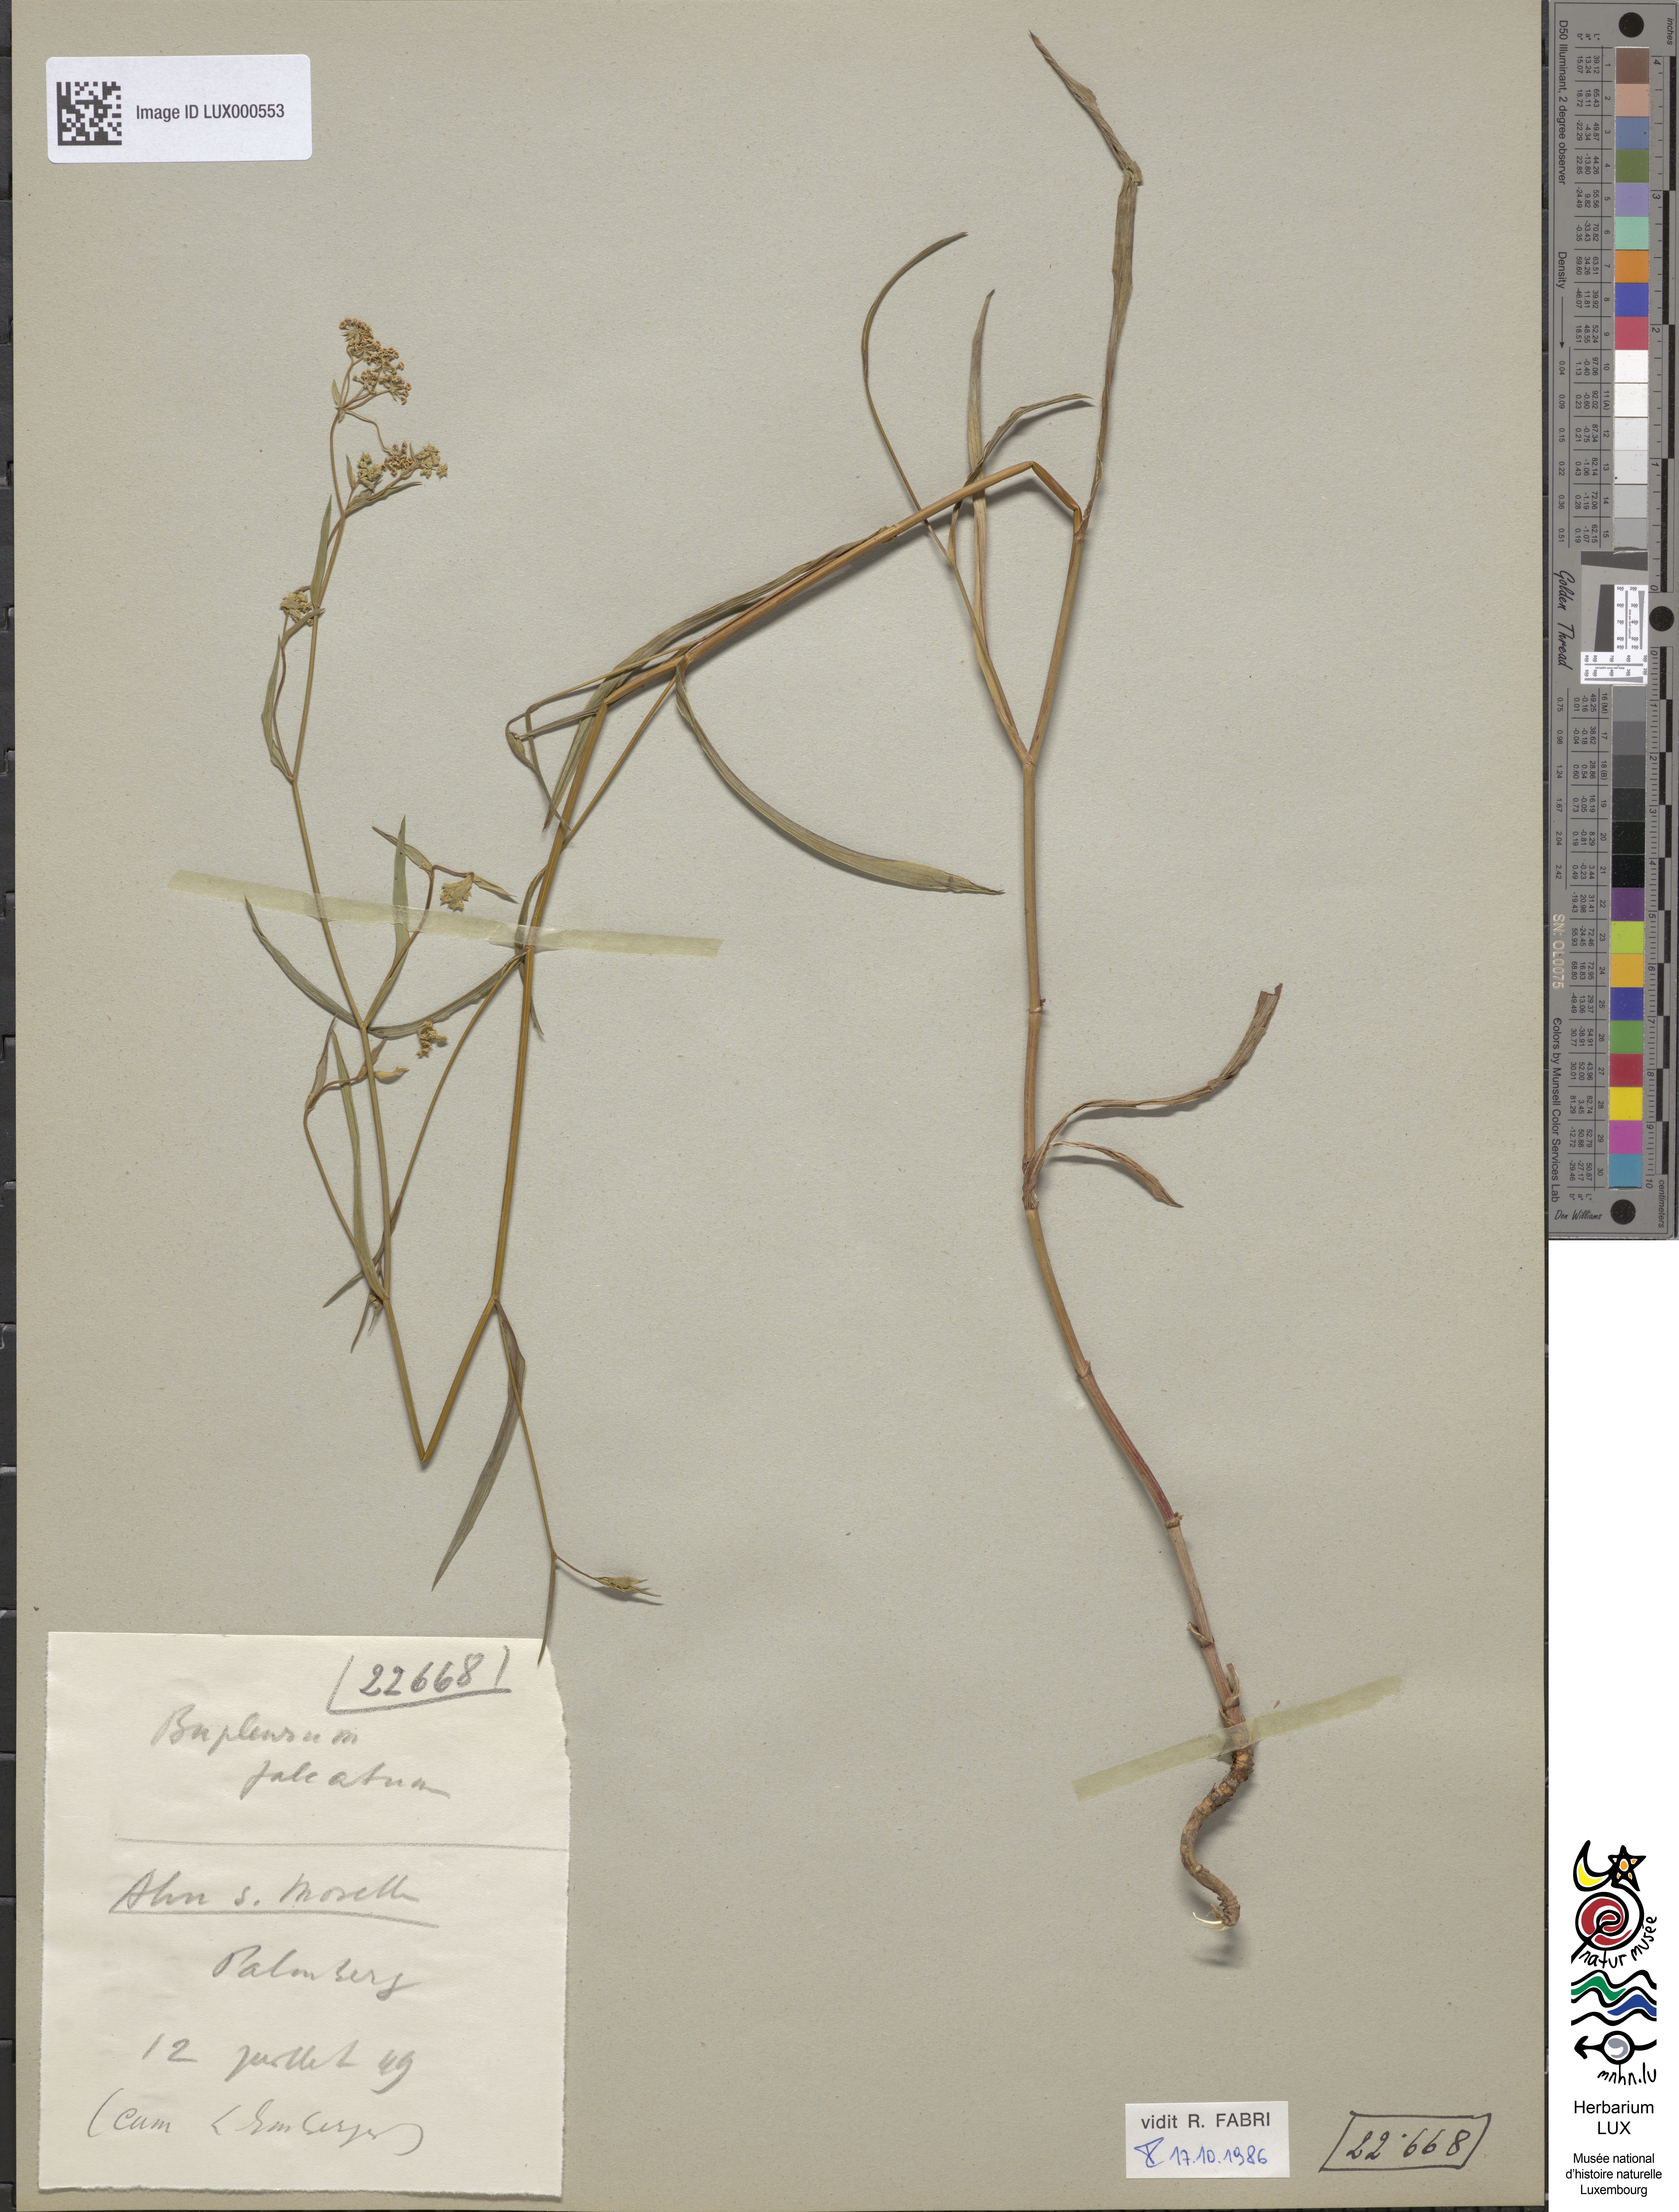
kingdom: Plantae
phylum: Tracheophyta
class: Magnoliopsida
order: Apiales
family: Apiaceae
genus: Bupleurum
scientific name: Bupleurum falcatum
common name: Sickle-leaved hare's-ear
